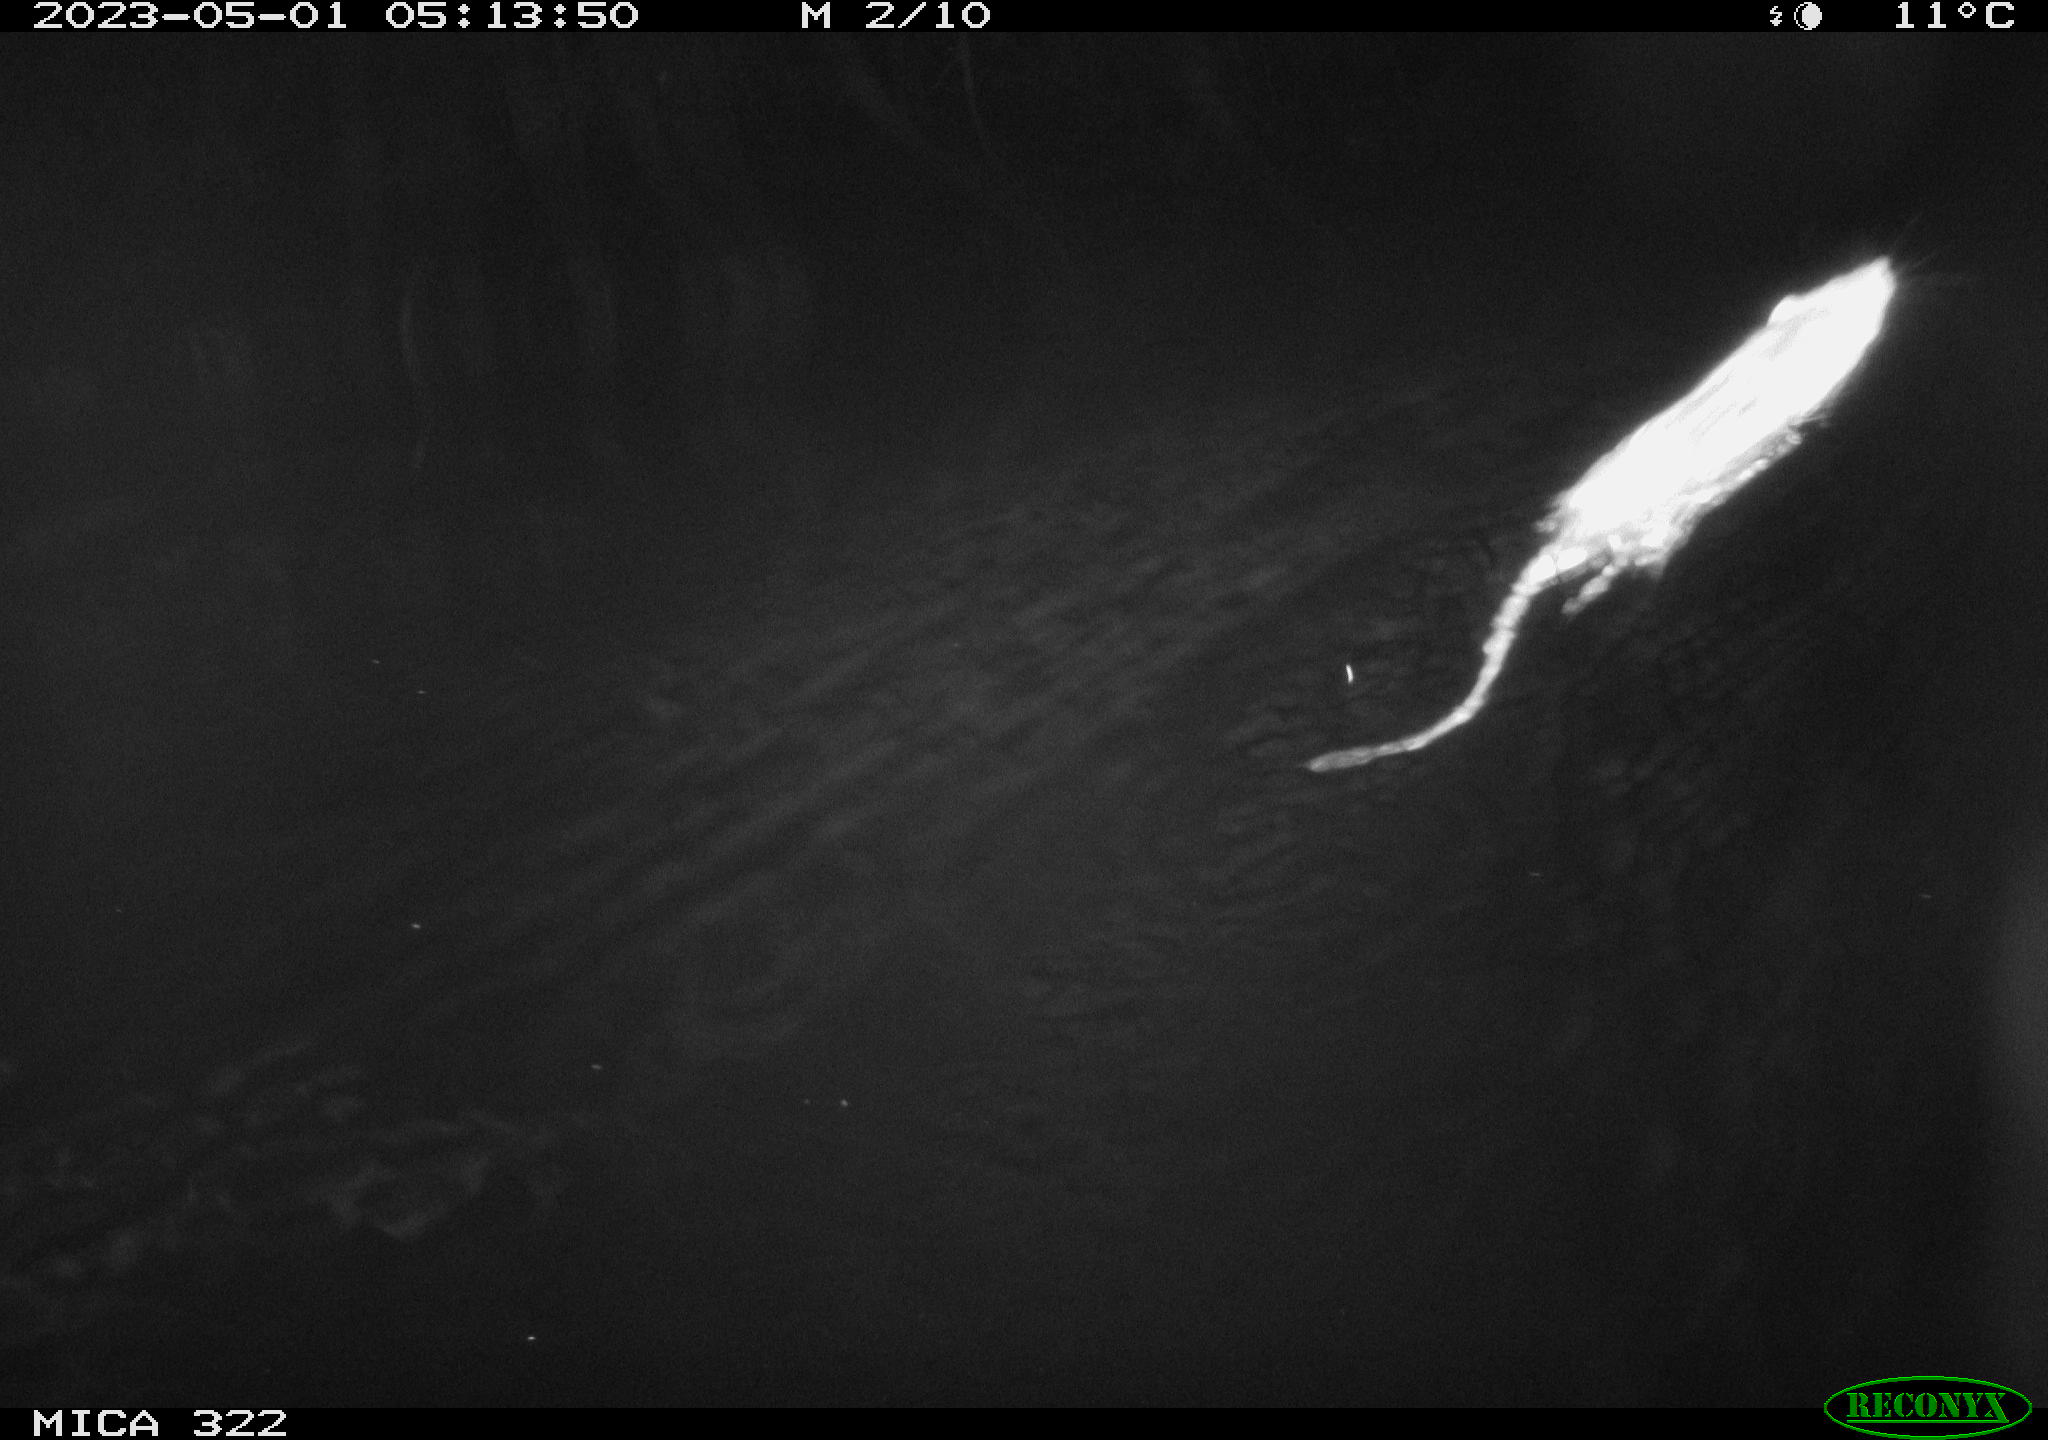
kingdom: Animalia
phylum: Chordata
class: Mammalia
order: Rodentia
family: Muridae
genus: Rattus
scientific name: Rattus norvegicus
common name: Brown rat
